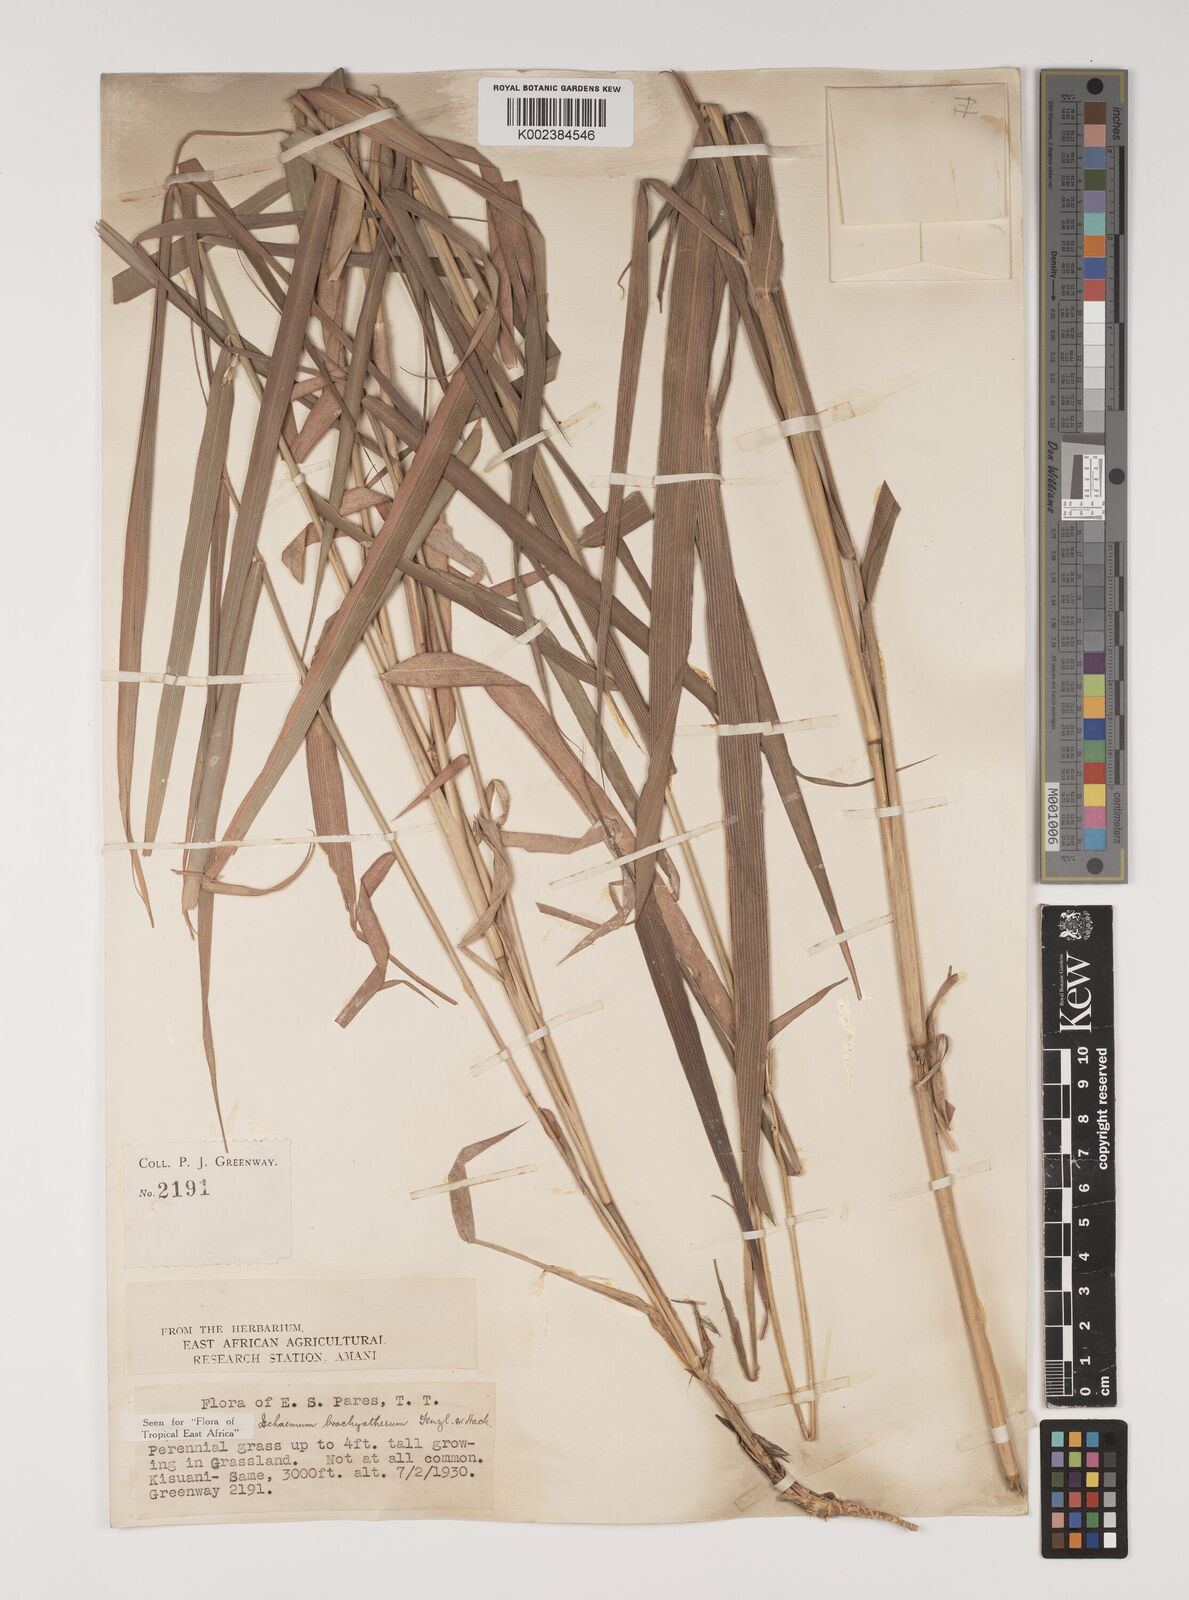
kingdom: Plantae
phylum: Tracheophyta
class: Liliopsida
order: Poales
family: Poaceae
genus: Ischaemum
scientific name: Ischaemum afrum
